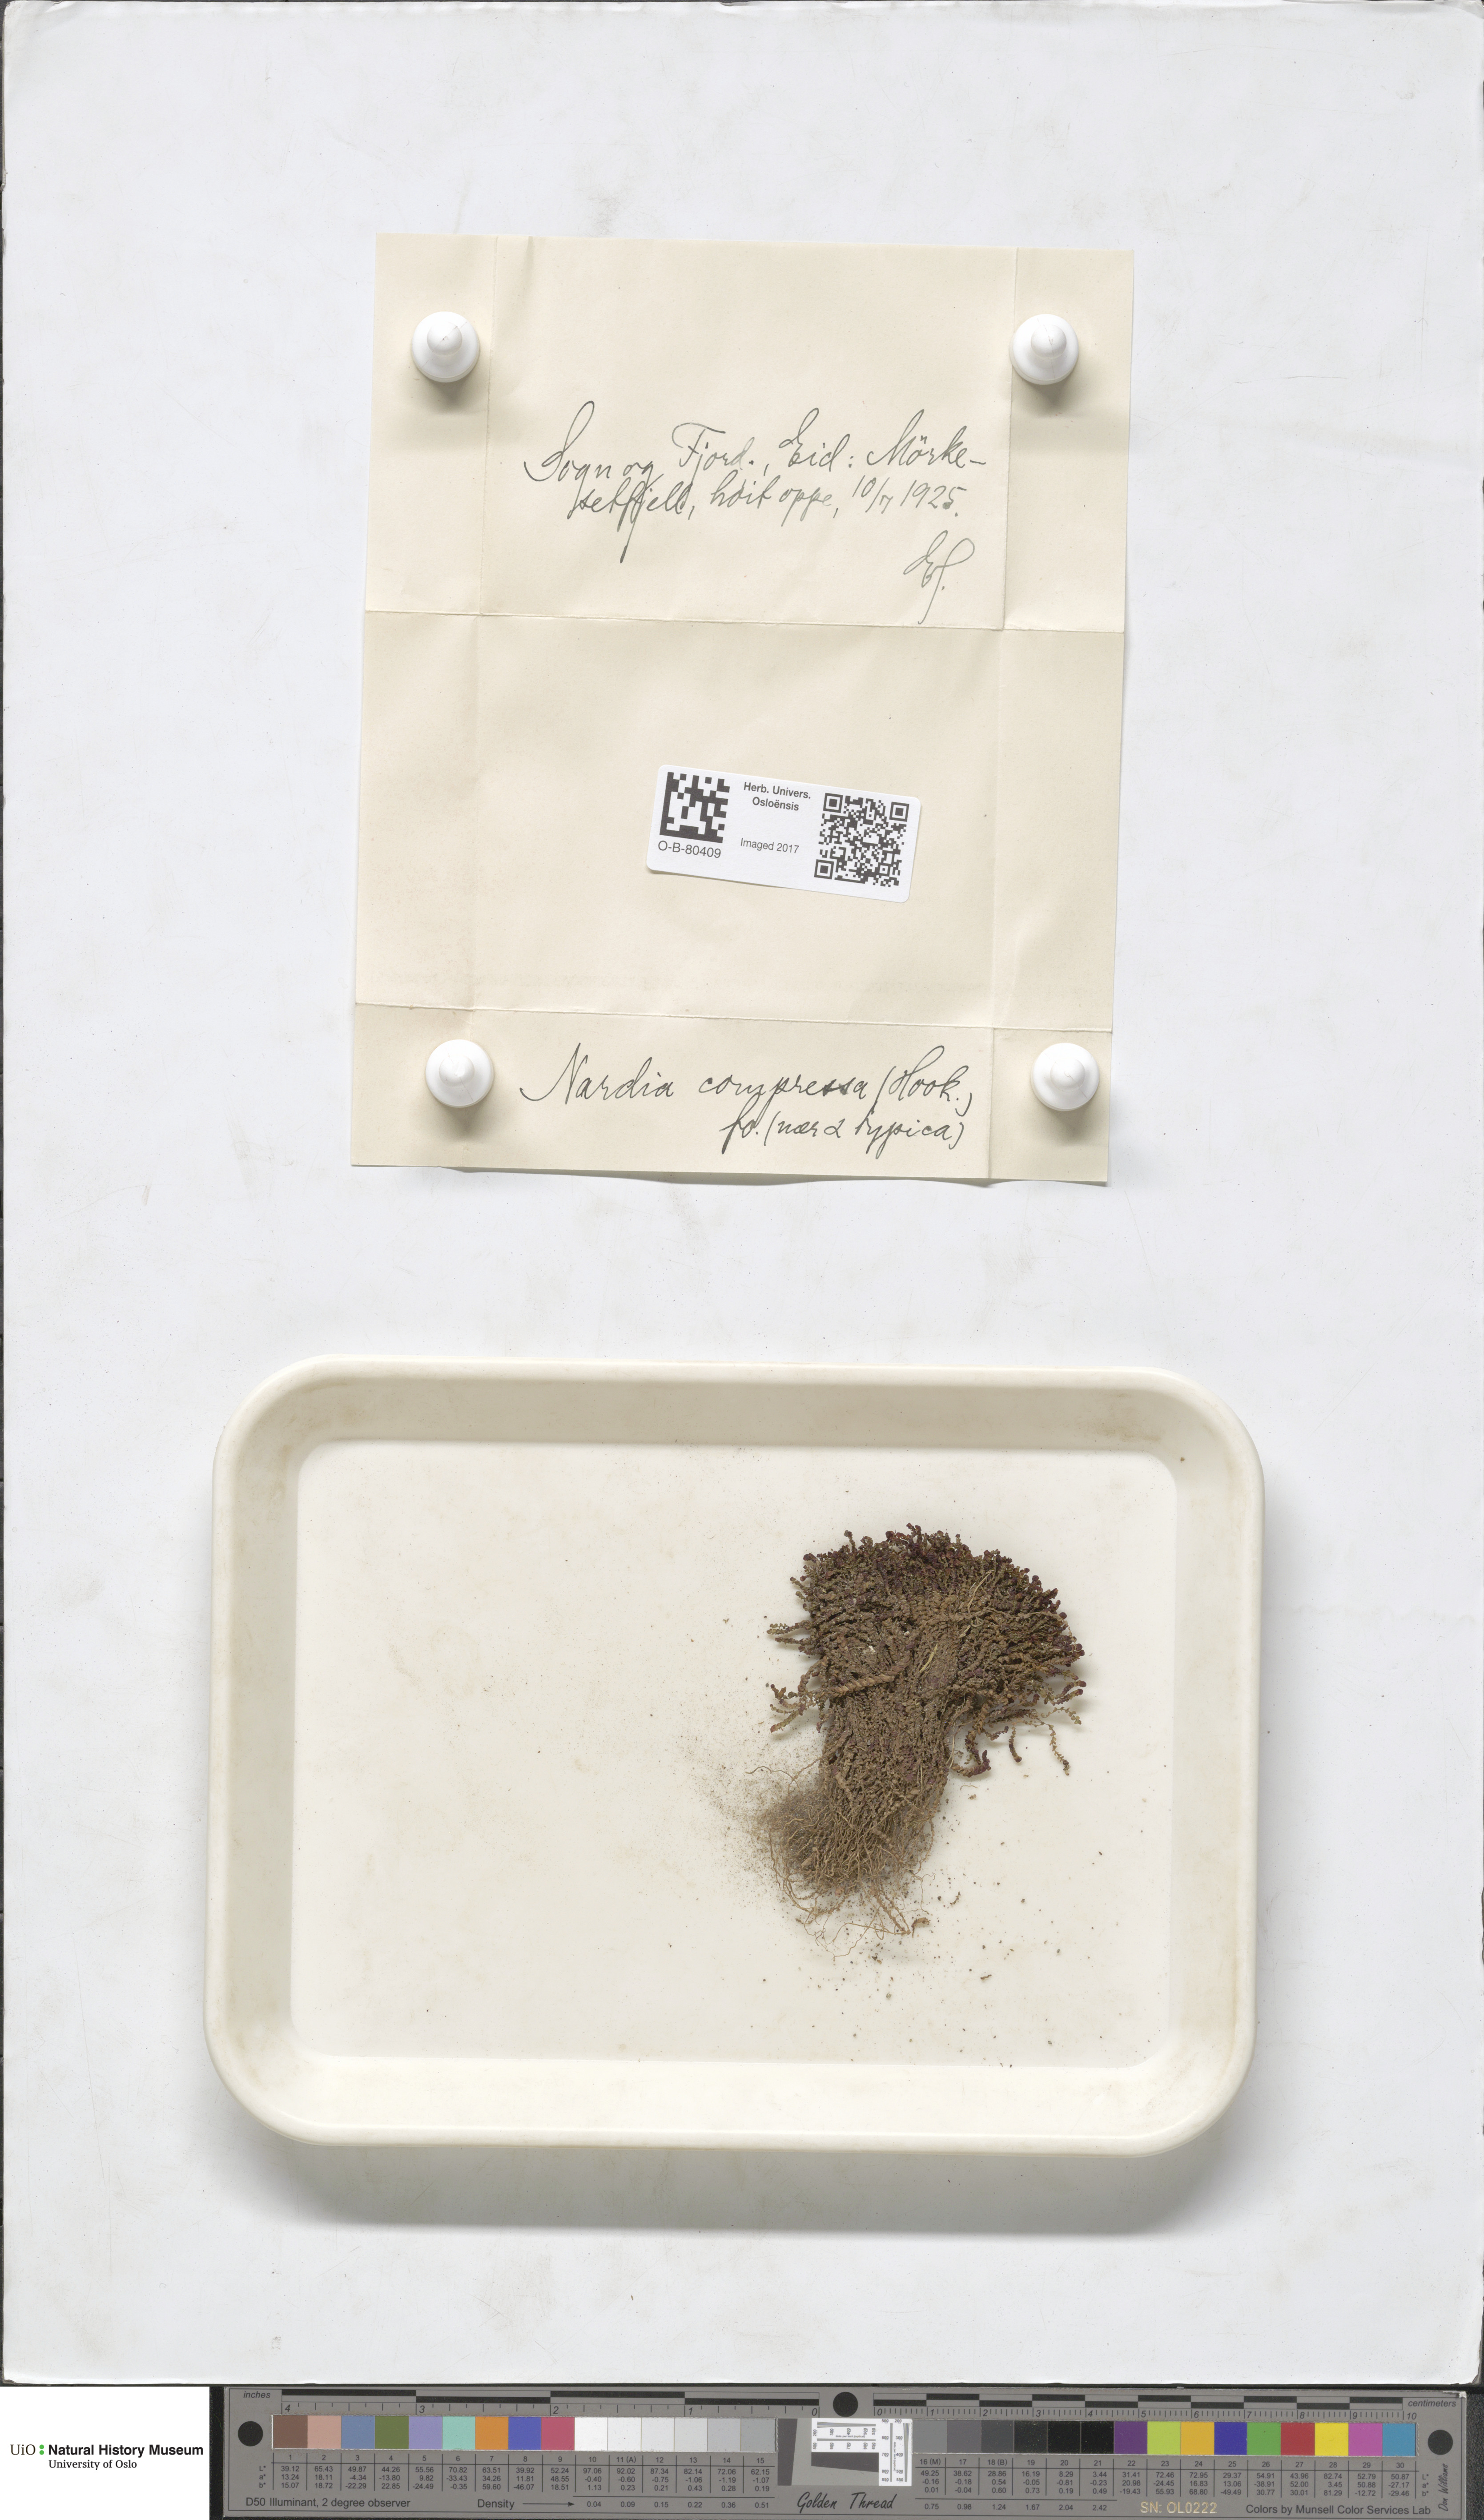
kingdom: Plantae
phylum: Marchantiophyta
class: Jungermanniopsida
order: Jungermanniales
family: Gymnomitriaceae
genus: Nardia
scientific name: Nardia compressa
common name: Compressed flapwort
